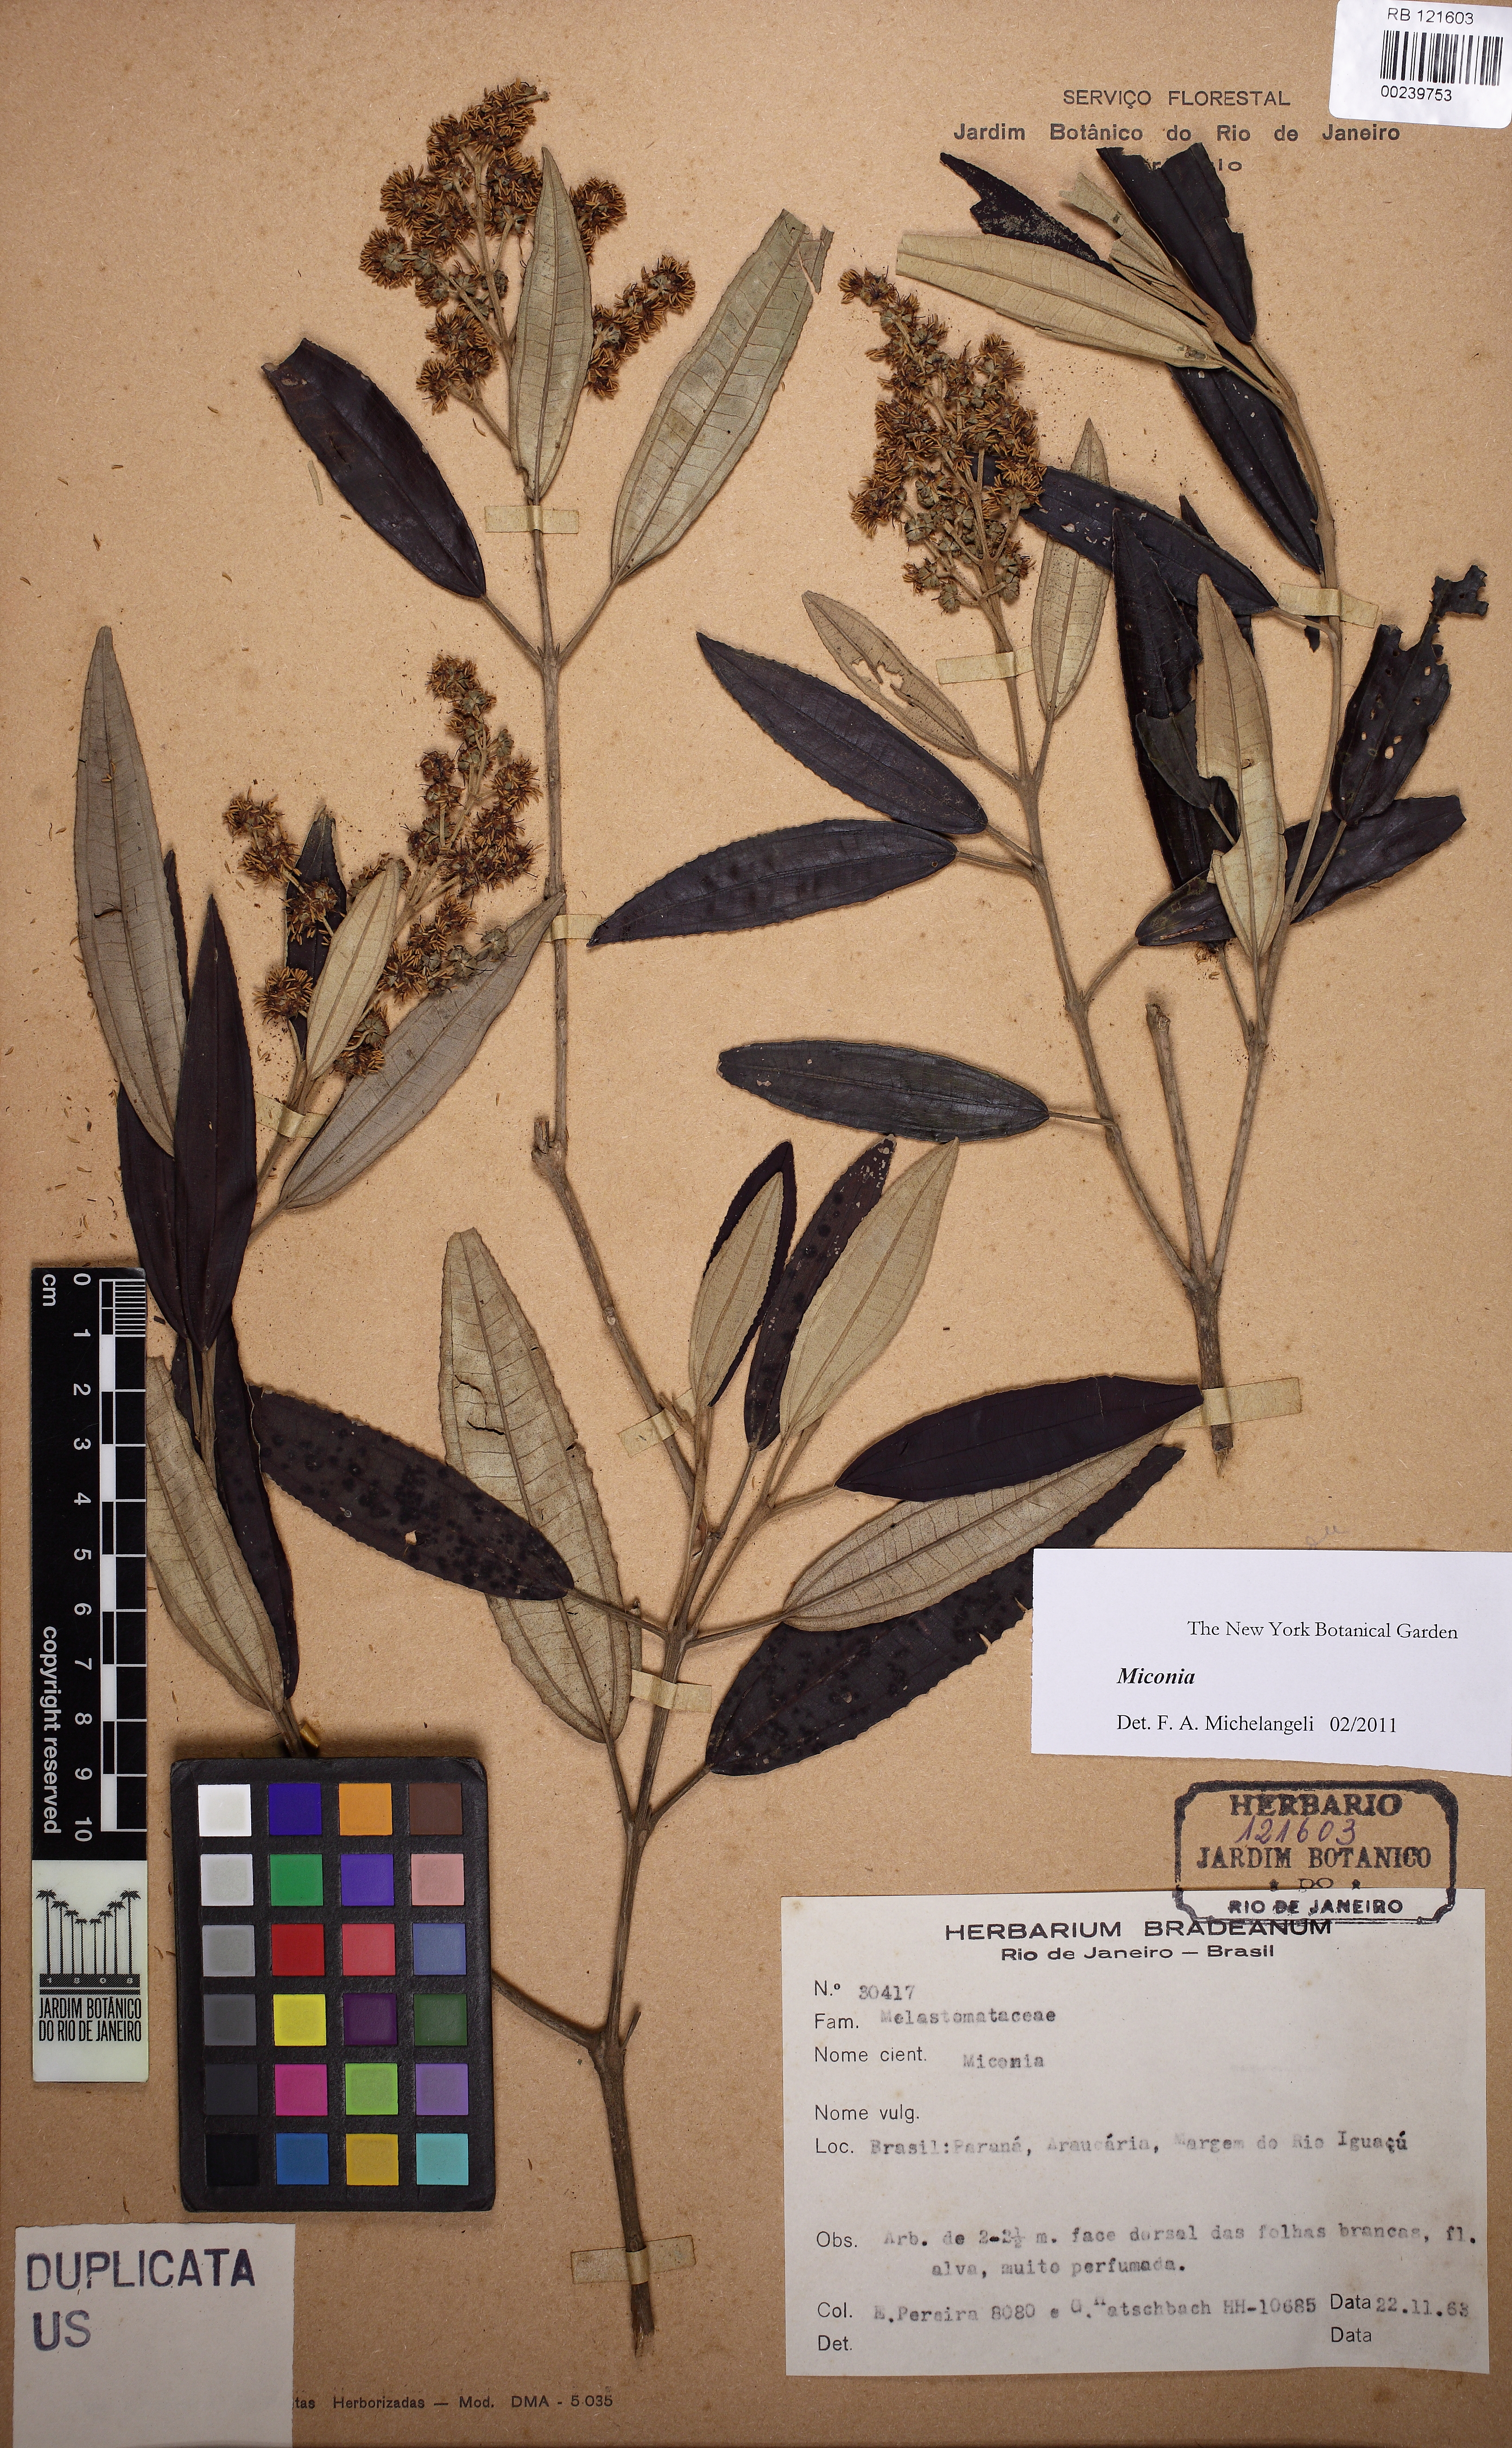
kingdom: Plantae
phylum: Tracheophyta
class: Magnoliopsida
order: Myrtales
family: Melastomataceae
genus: Miconia
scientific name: Miconia
